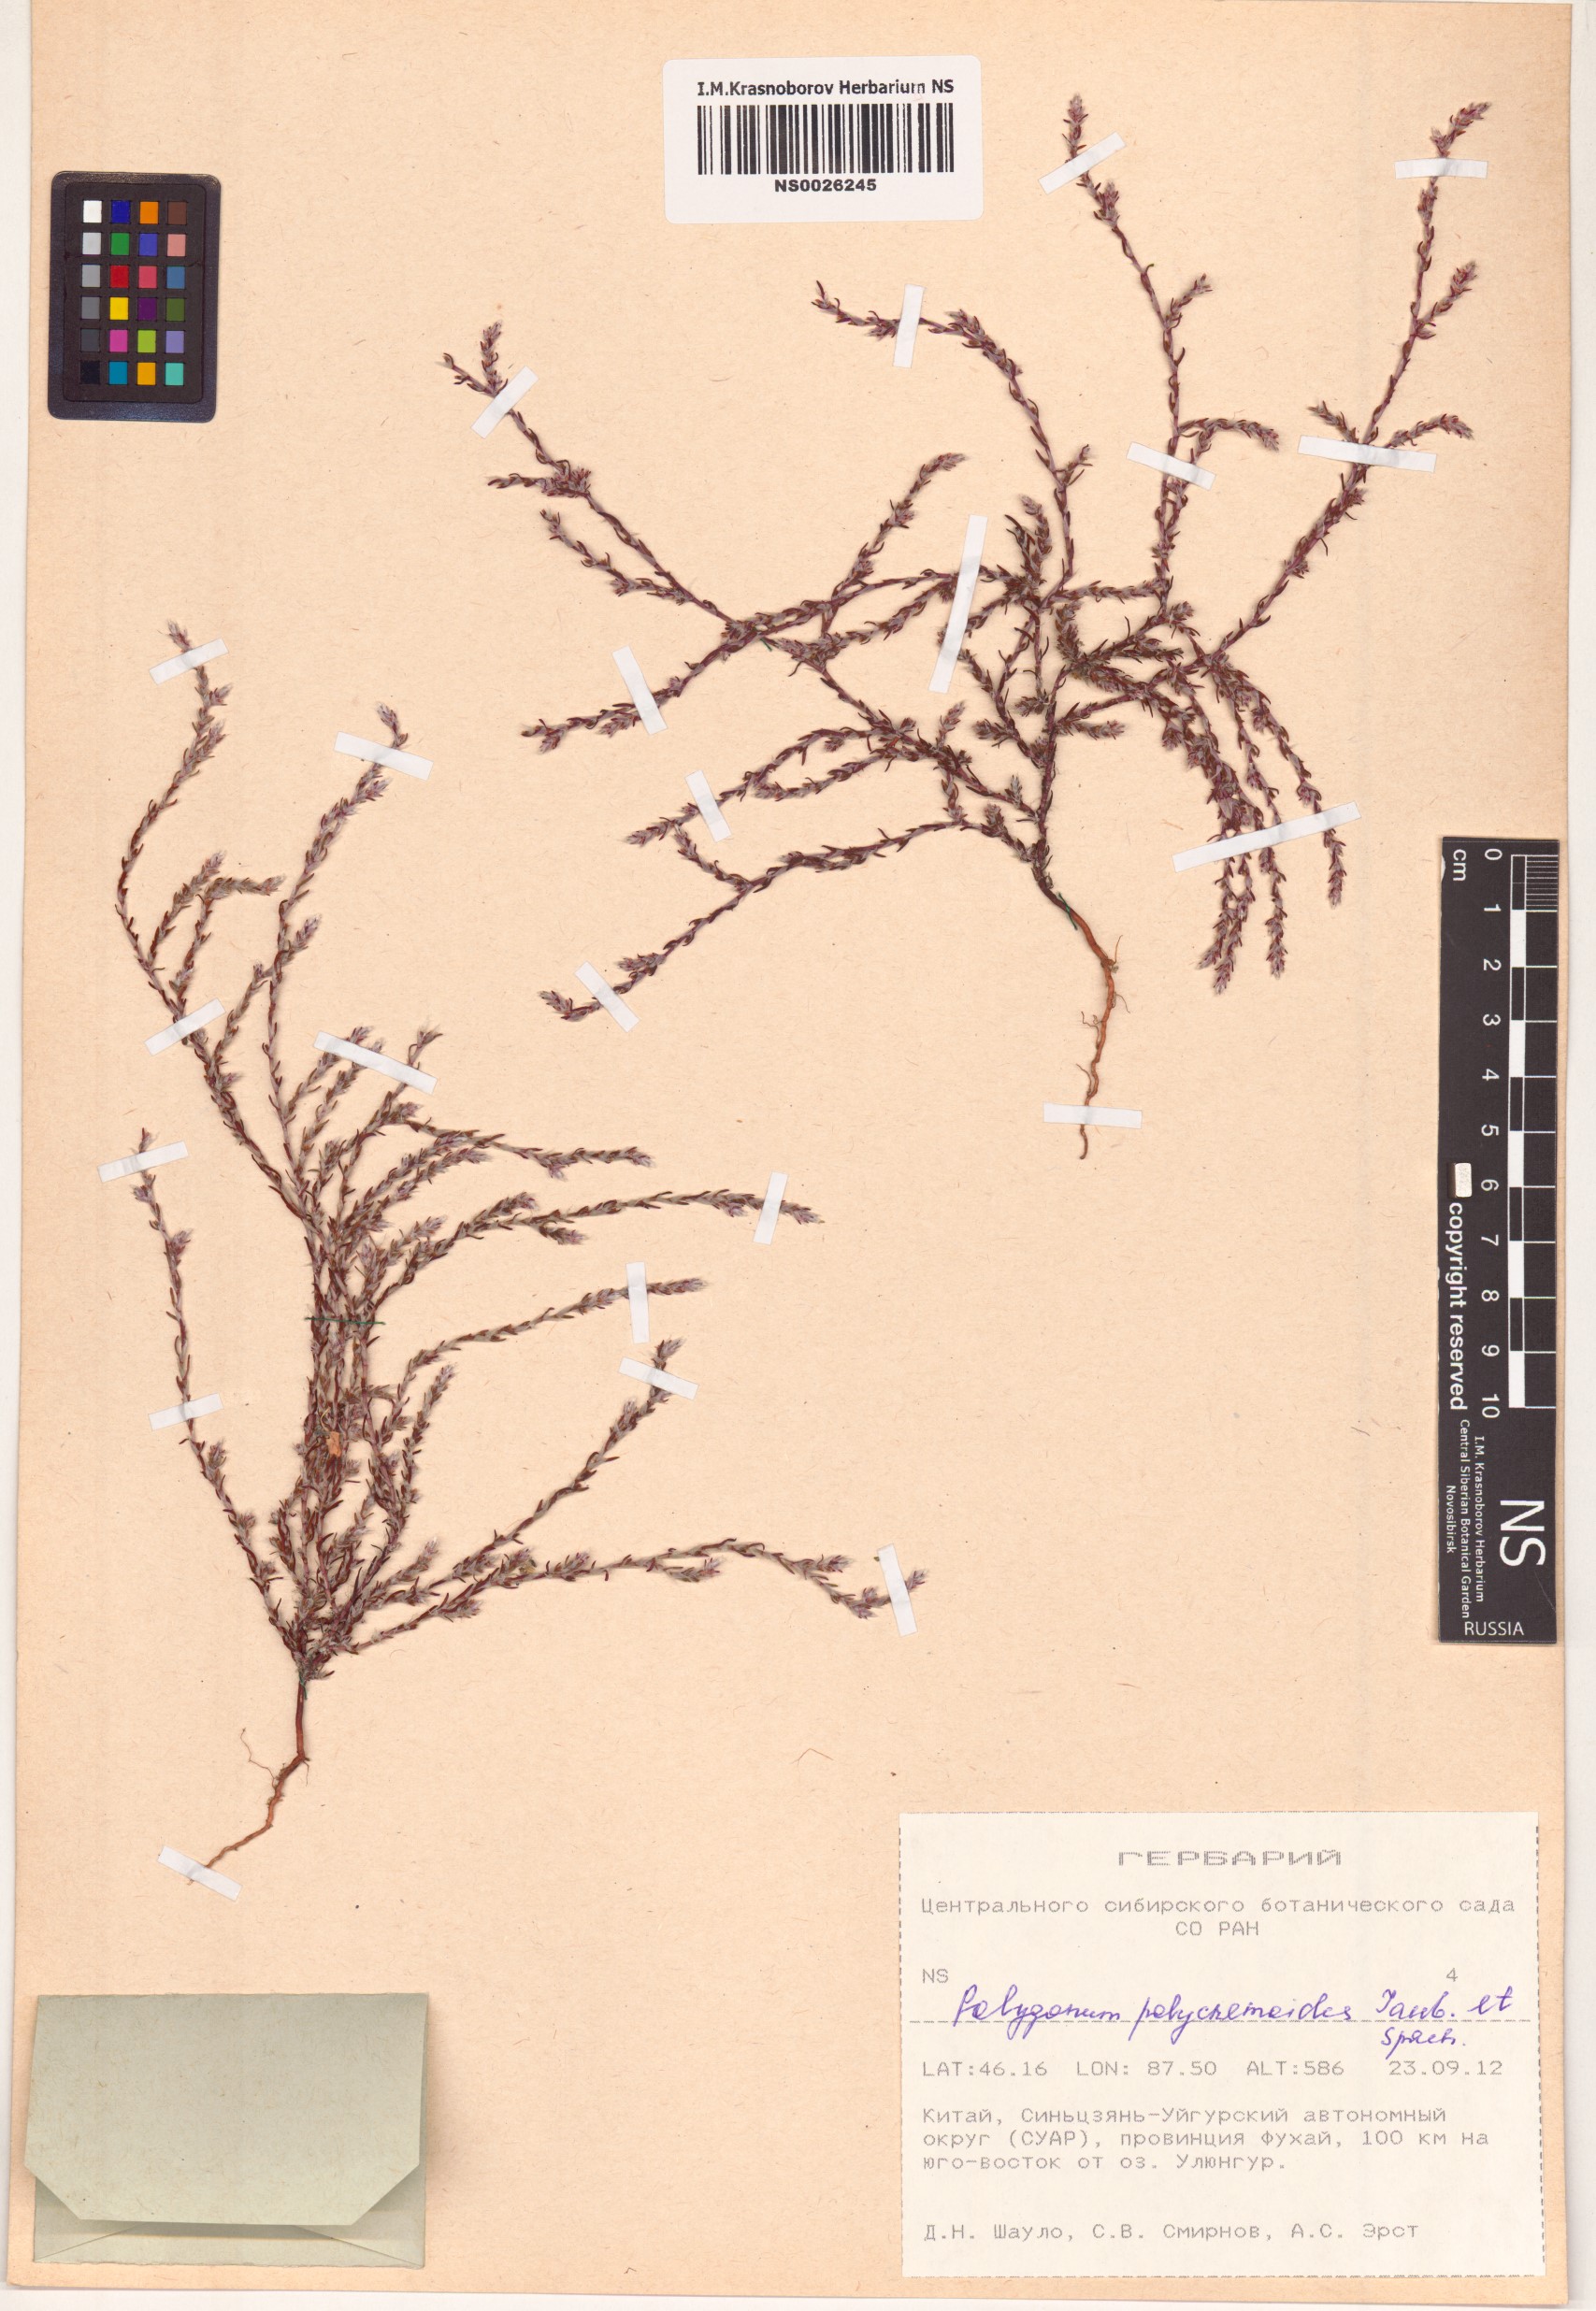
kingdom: Plantae
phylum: Tracheophyta
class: Magnoliopsida
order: Caryophyllales
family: Polygonaceae
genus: Polygonum
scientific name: Polygonum polycnemoides
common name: Manyleg knotweed
